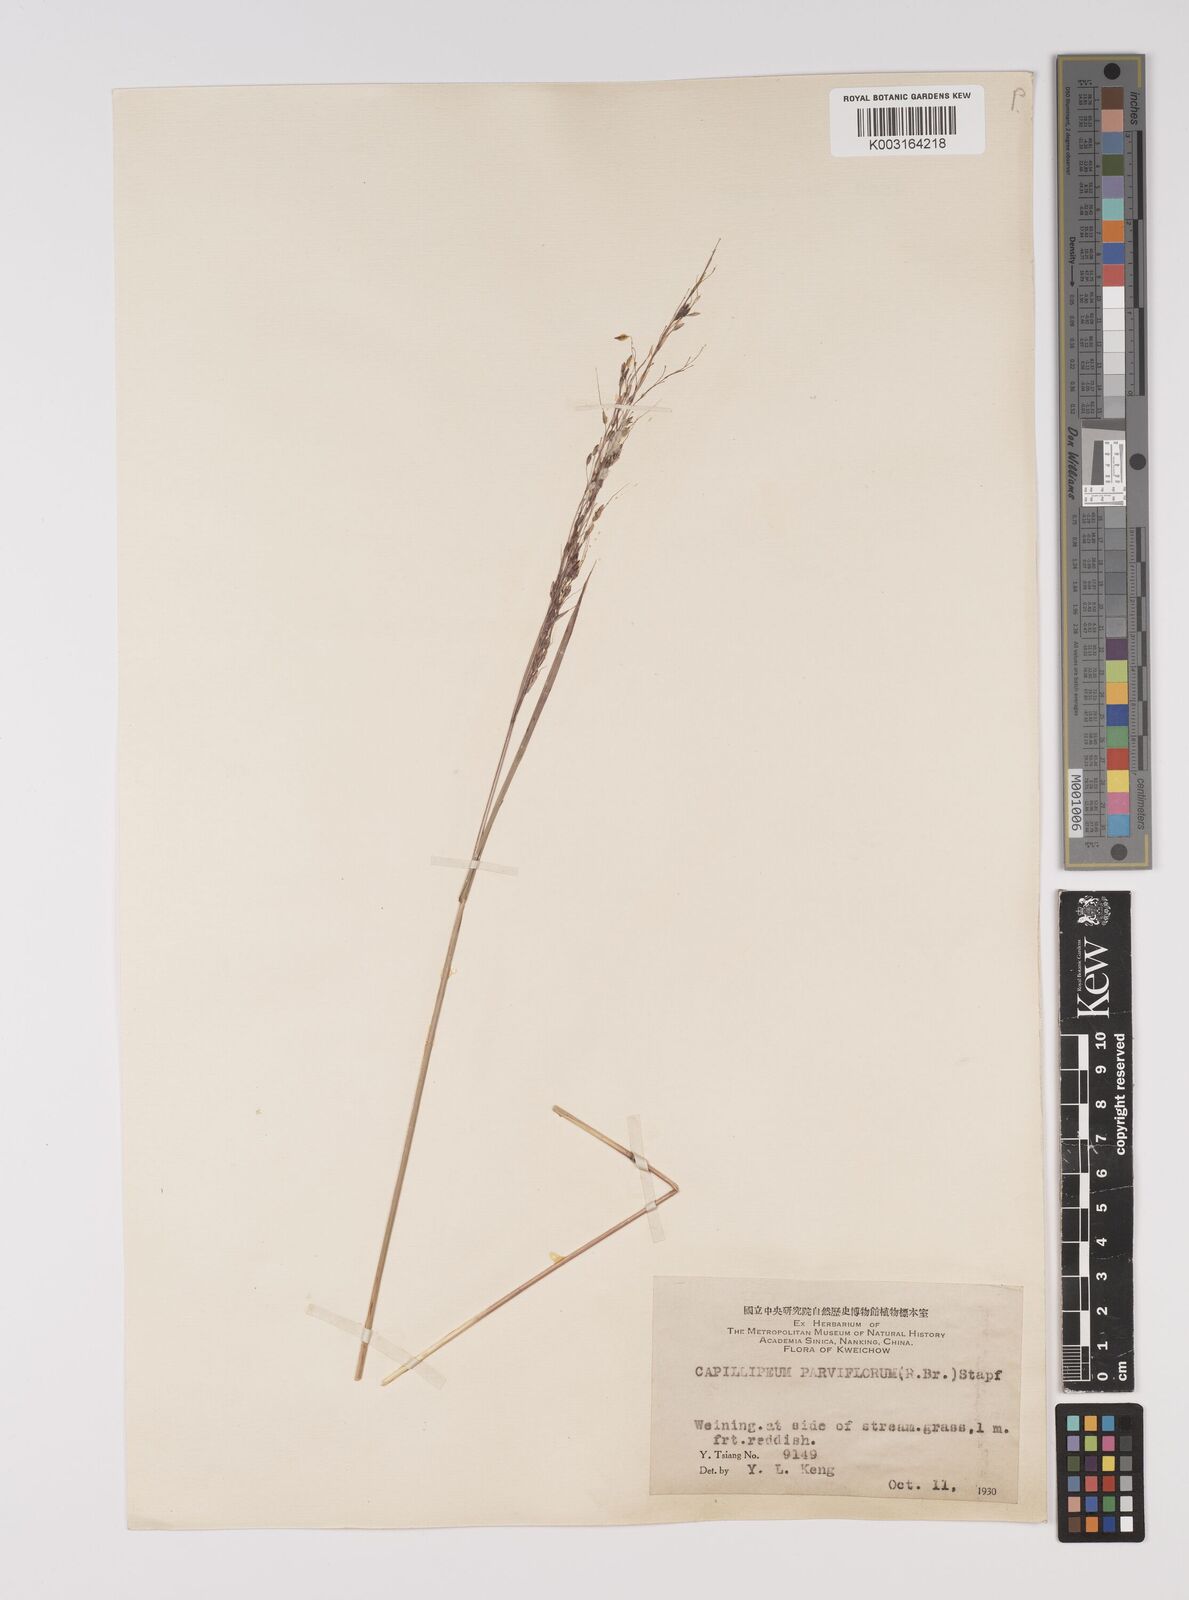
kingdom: Plantae
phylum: Tracheophyta
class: Liliopsida
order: Poales
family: Poaceae
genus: Capillipedium
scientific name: Capillipedium parviflorum
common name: Golden-beard
